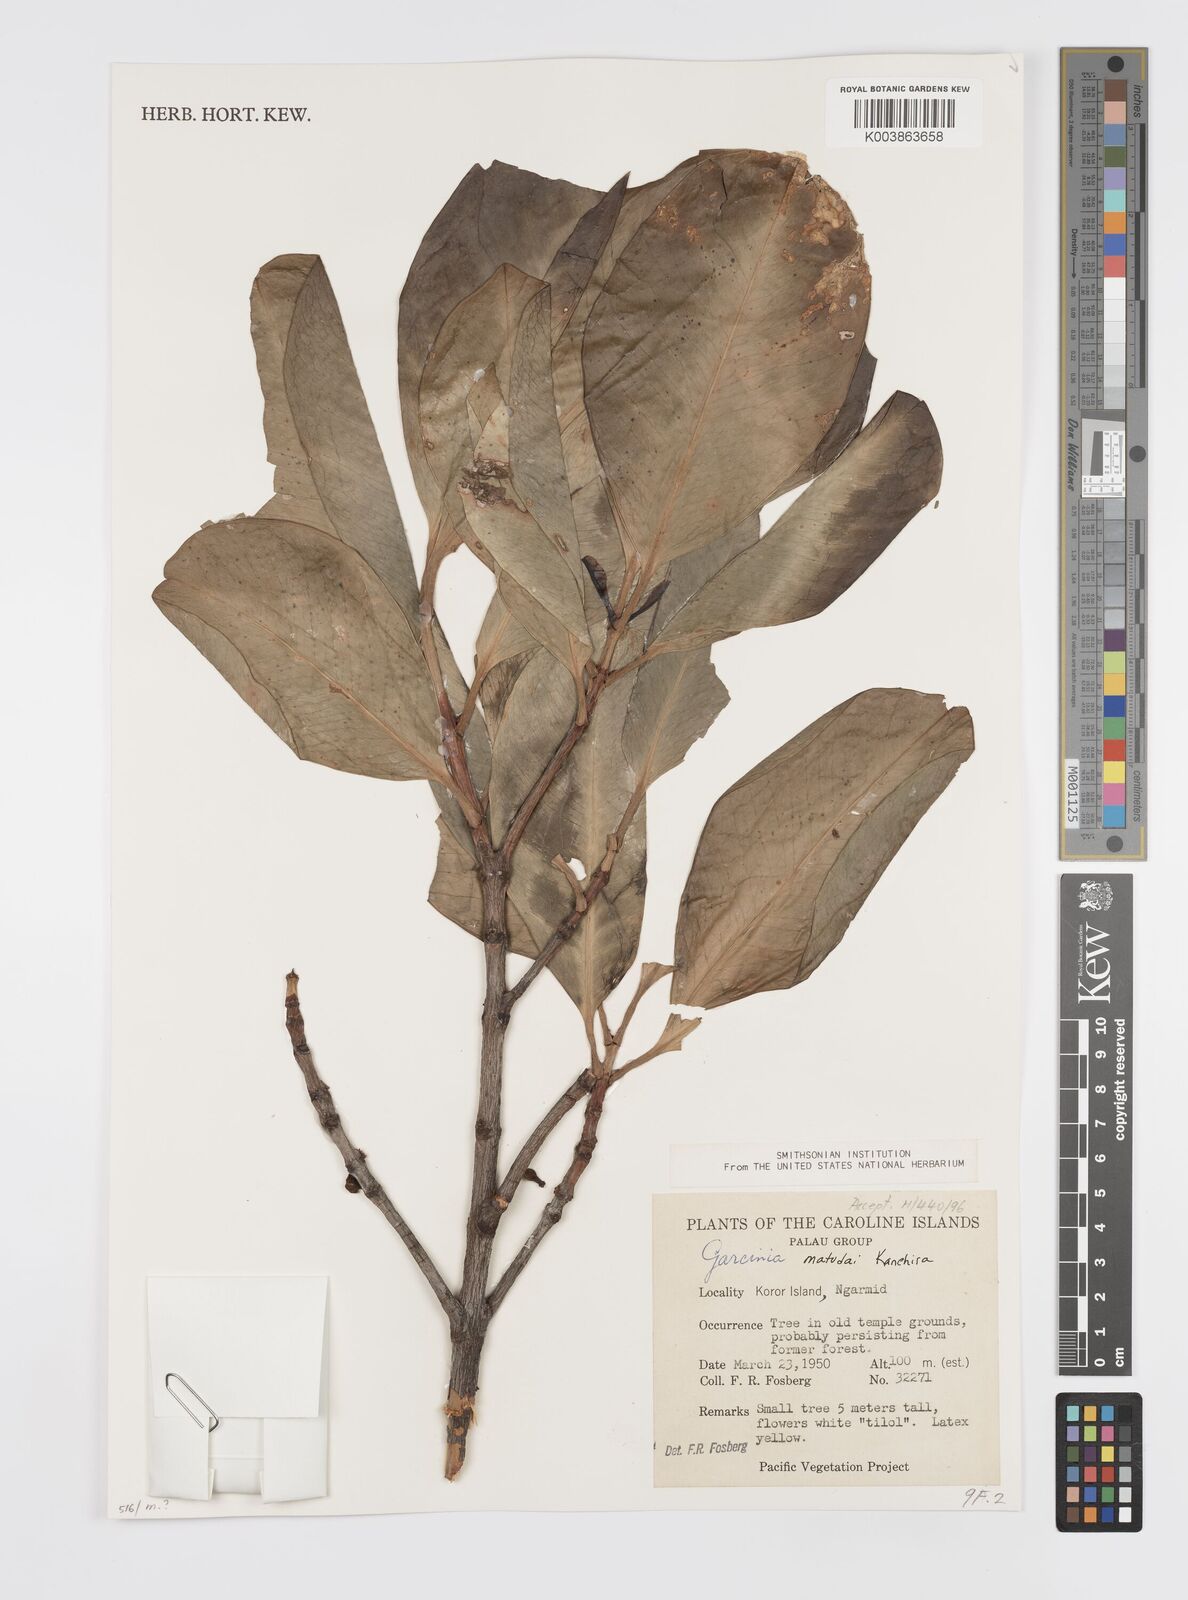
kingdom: Plantae
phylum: Tracheophyta
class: Magnoliopsida
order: Malpighiales
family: Clusiaceae
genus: Garcinia
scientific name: Garcinia
